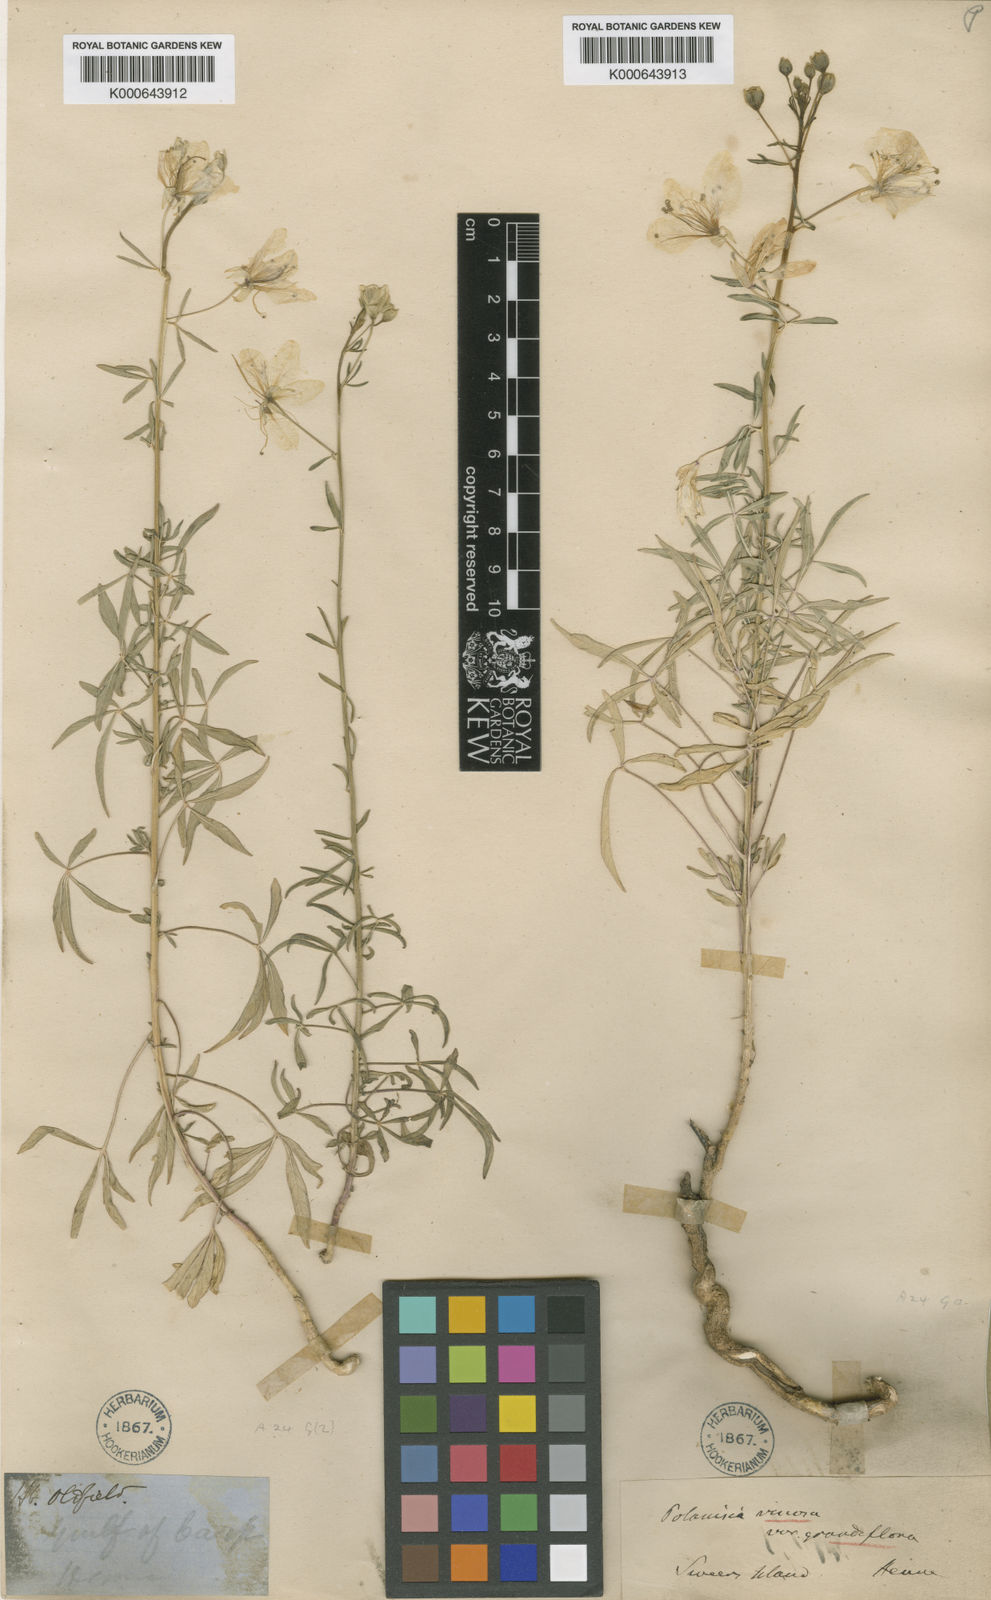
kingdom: Plantae
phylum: Tracheophyta
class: Magnoliopsida
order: Brassicales
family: Cleomaceae
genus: Arivela
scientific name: Arivela viscosa
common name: Asian spiderflower
